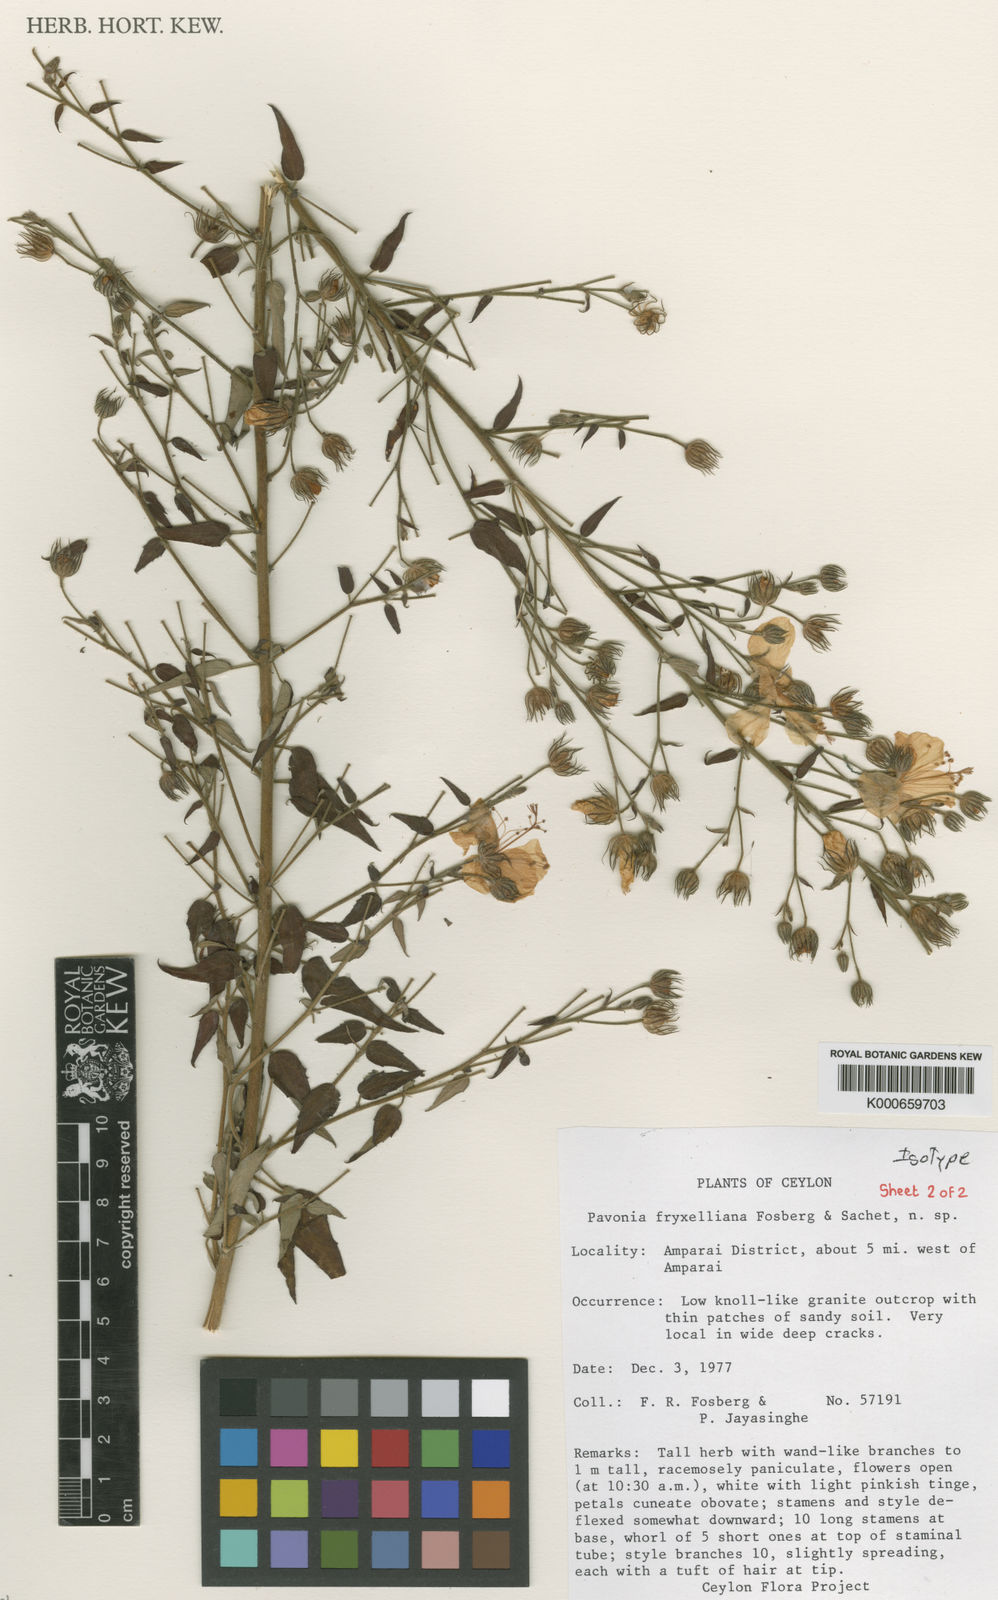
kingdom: Plantae
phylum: Tracheophyta
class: Magnoliopsida
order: Malvales
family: Malvaceae
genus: Pavonia
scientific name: Pavonia fryxelliana
